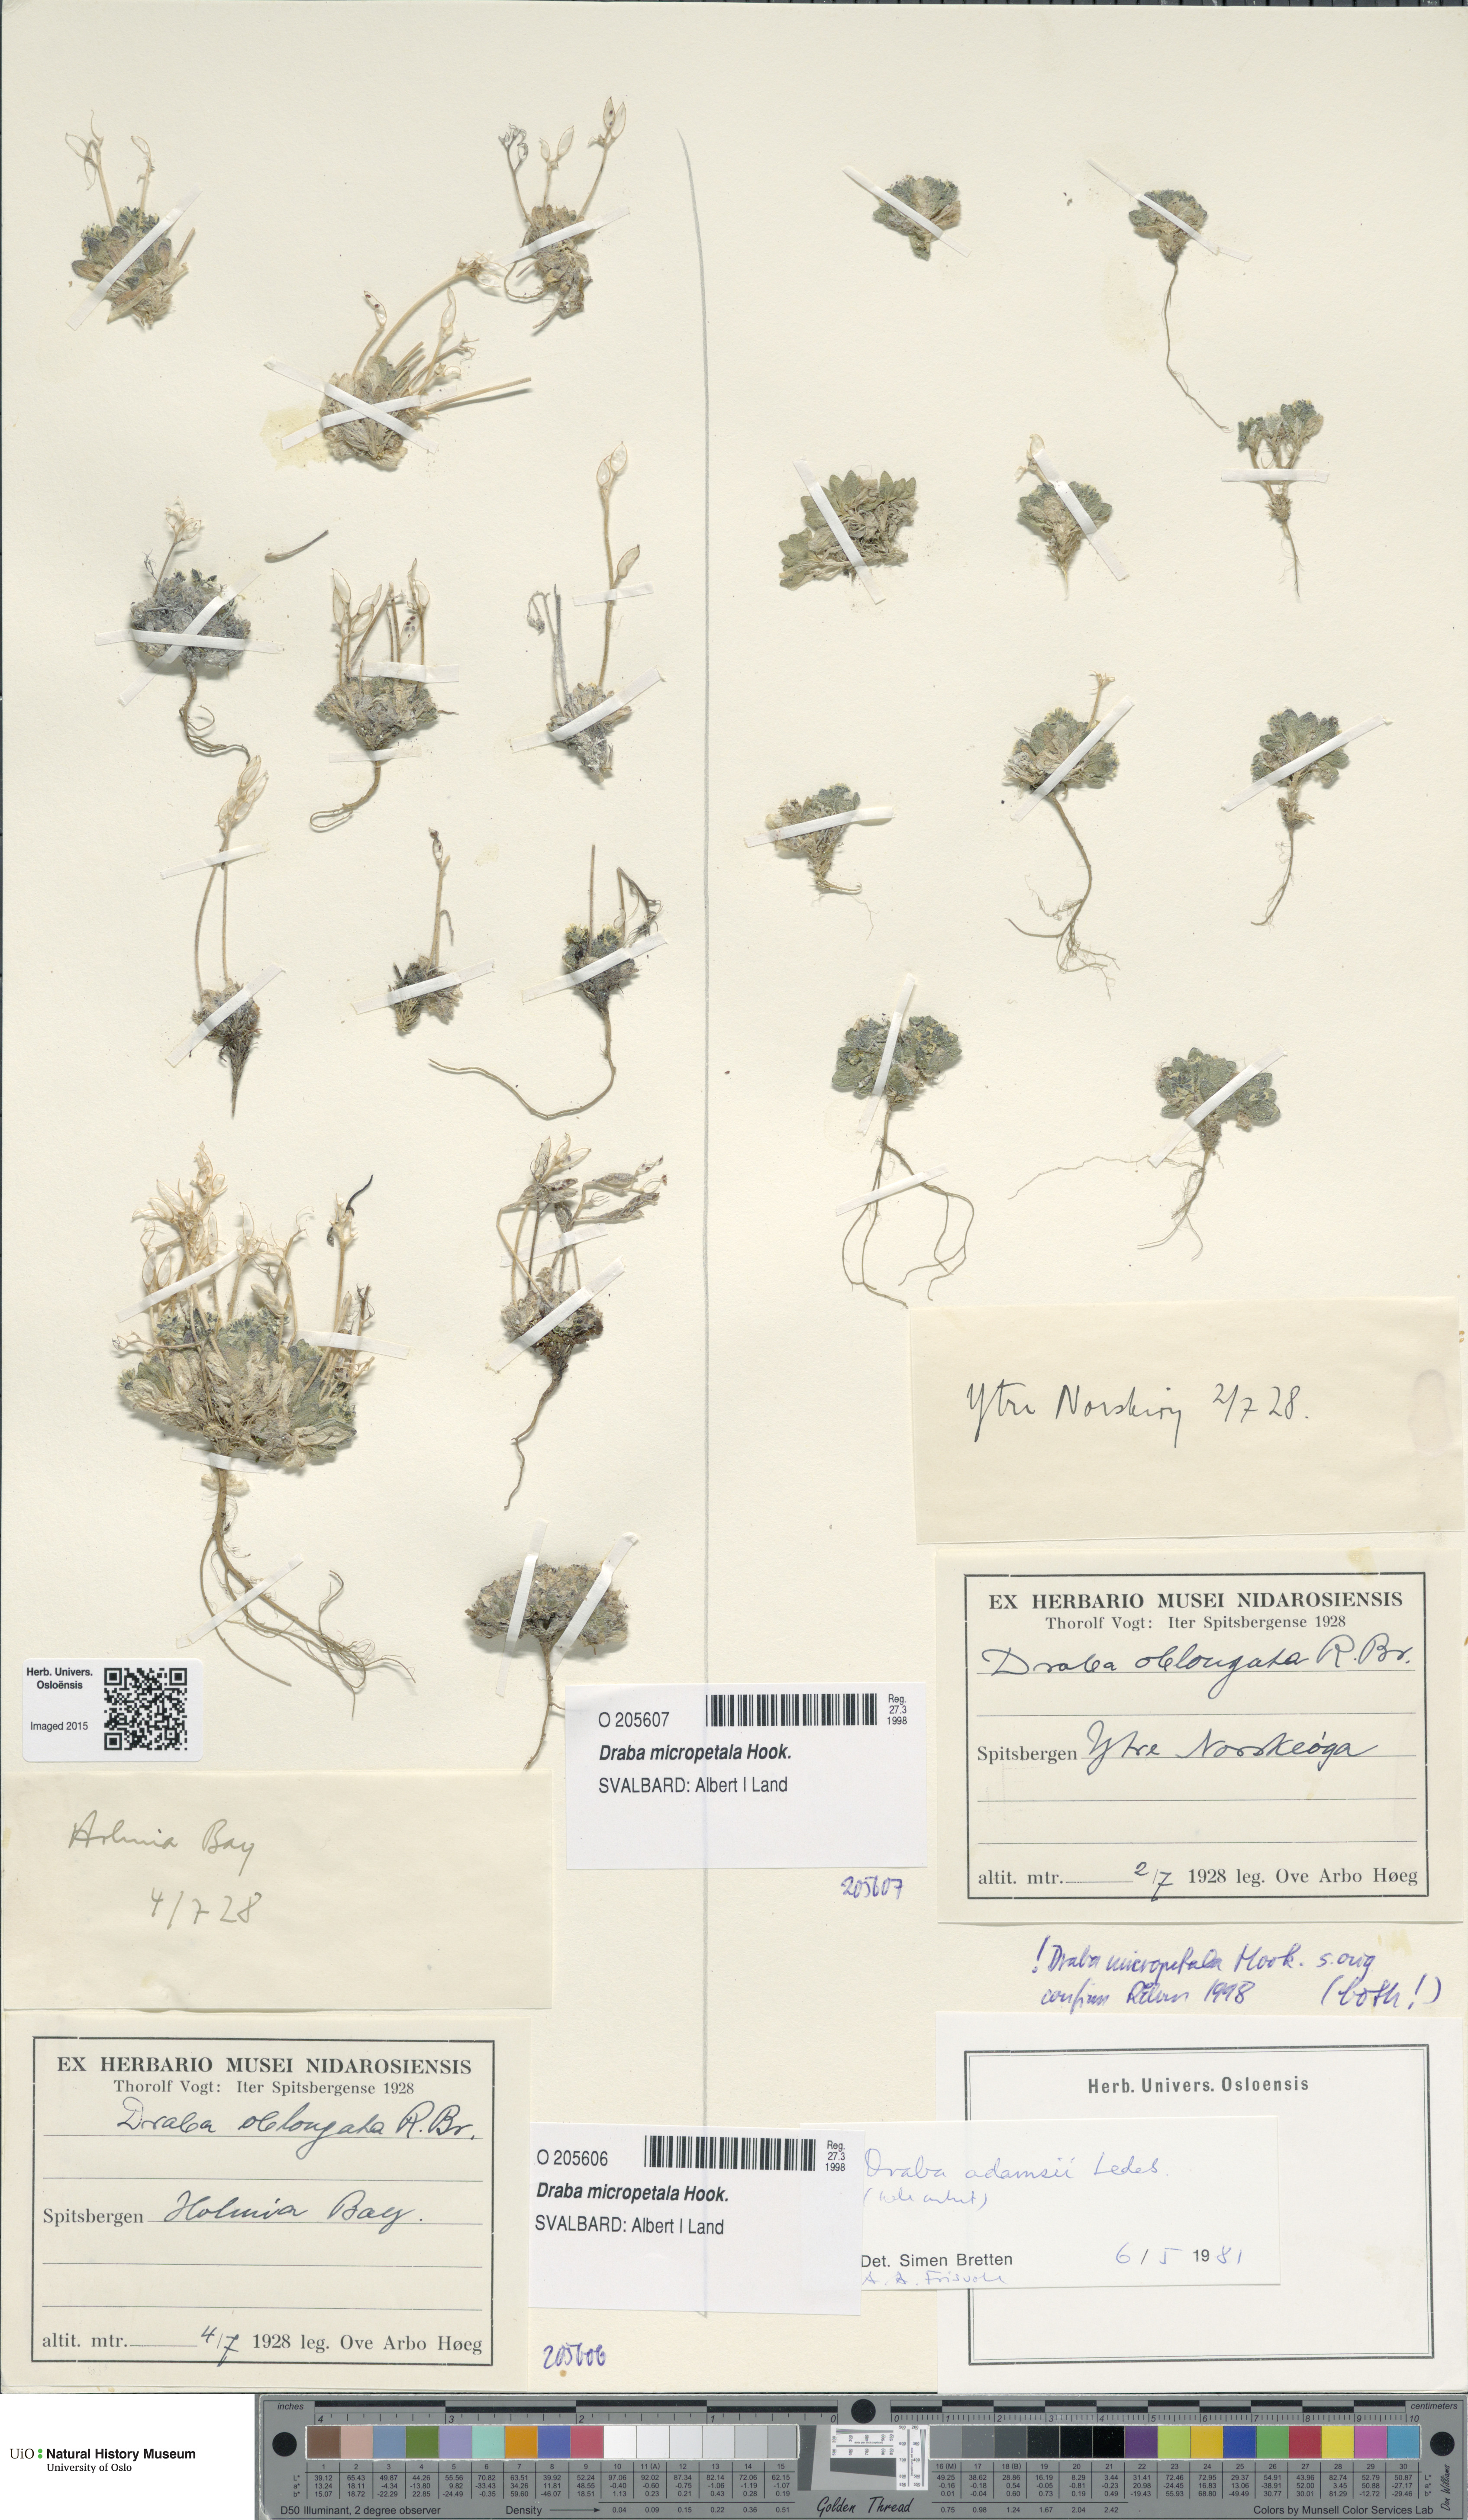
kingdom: Plantae
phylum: Tracheophyta
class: Magnoliopsida
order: Brassicales
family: Brassicaceae
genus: Draba
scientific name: Draba micropetala
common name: Small-flowered draba
